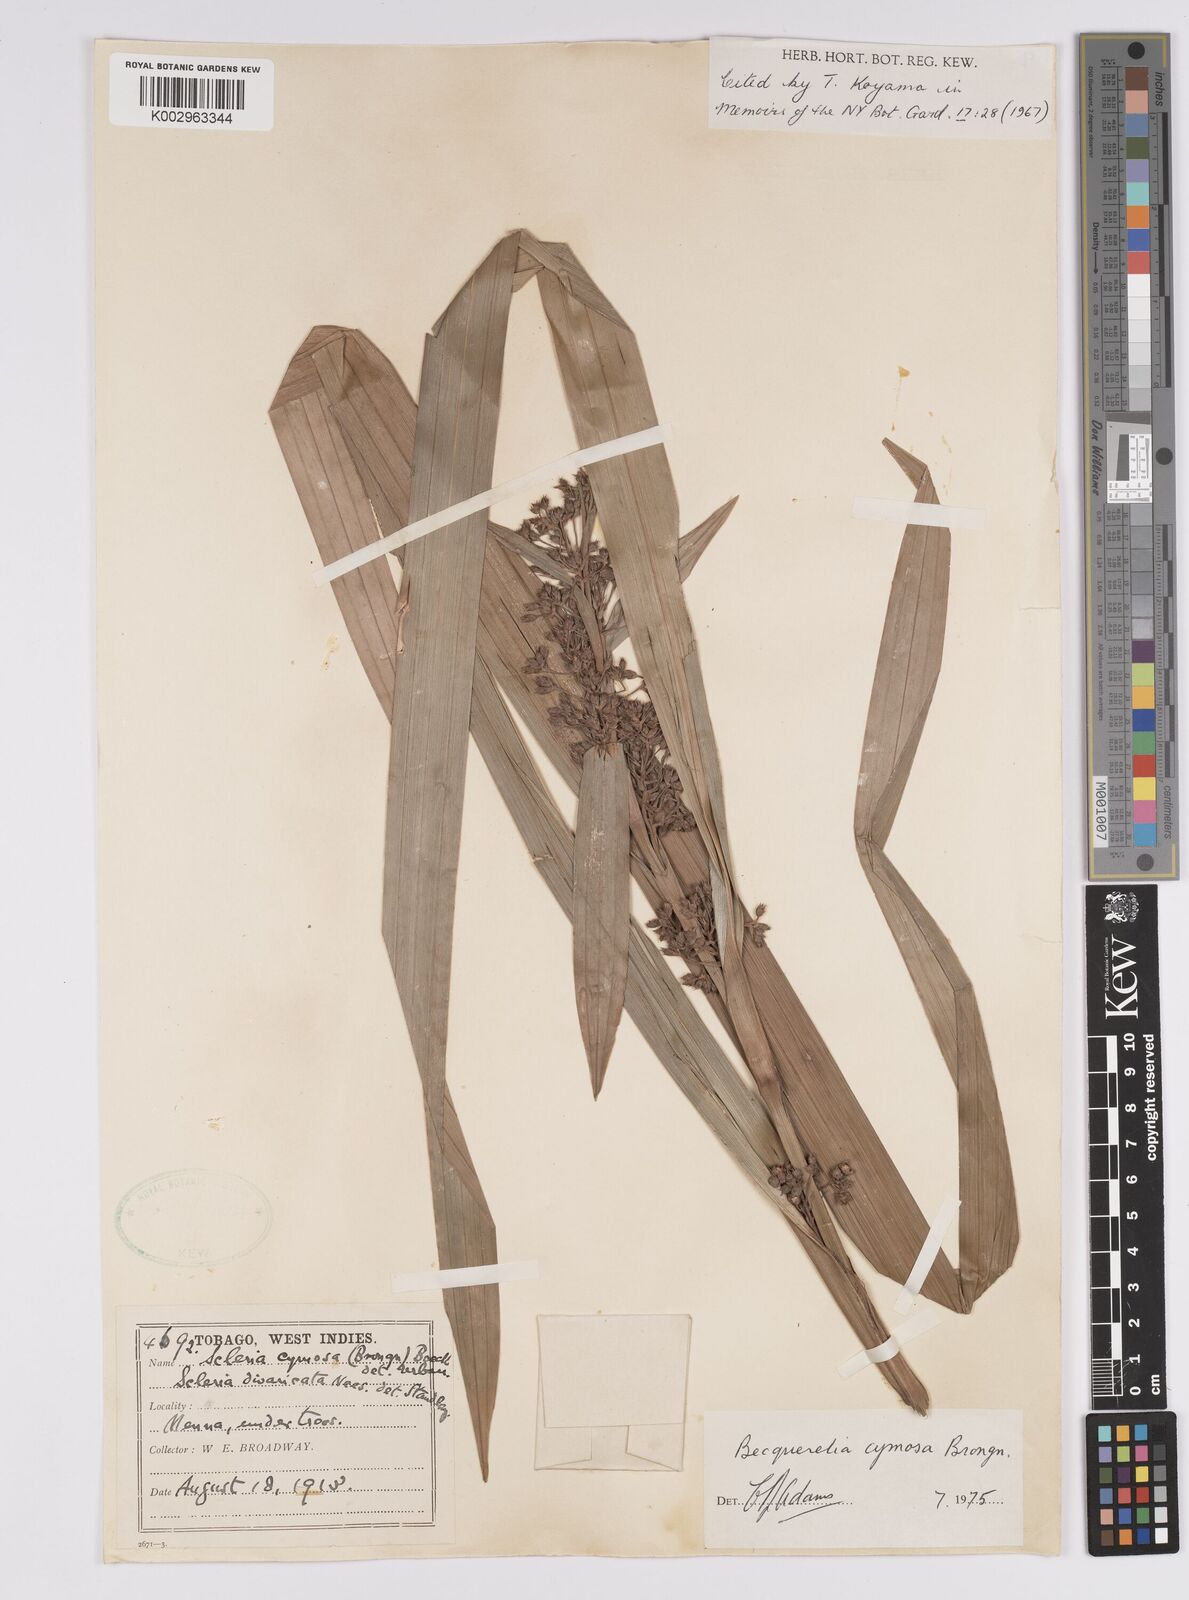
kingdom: Plantae
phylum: Tracheophyta
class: Liliopsida
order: Poales
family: Cyperaceae
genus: Becquerelia
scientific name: Becquerelia cymosa
